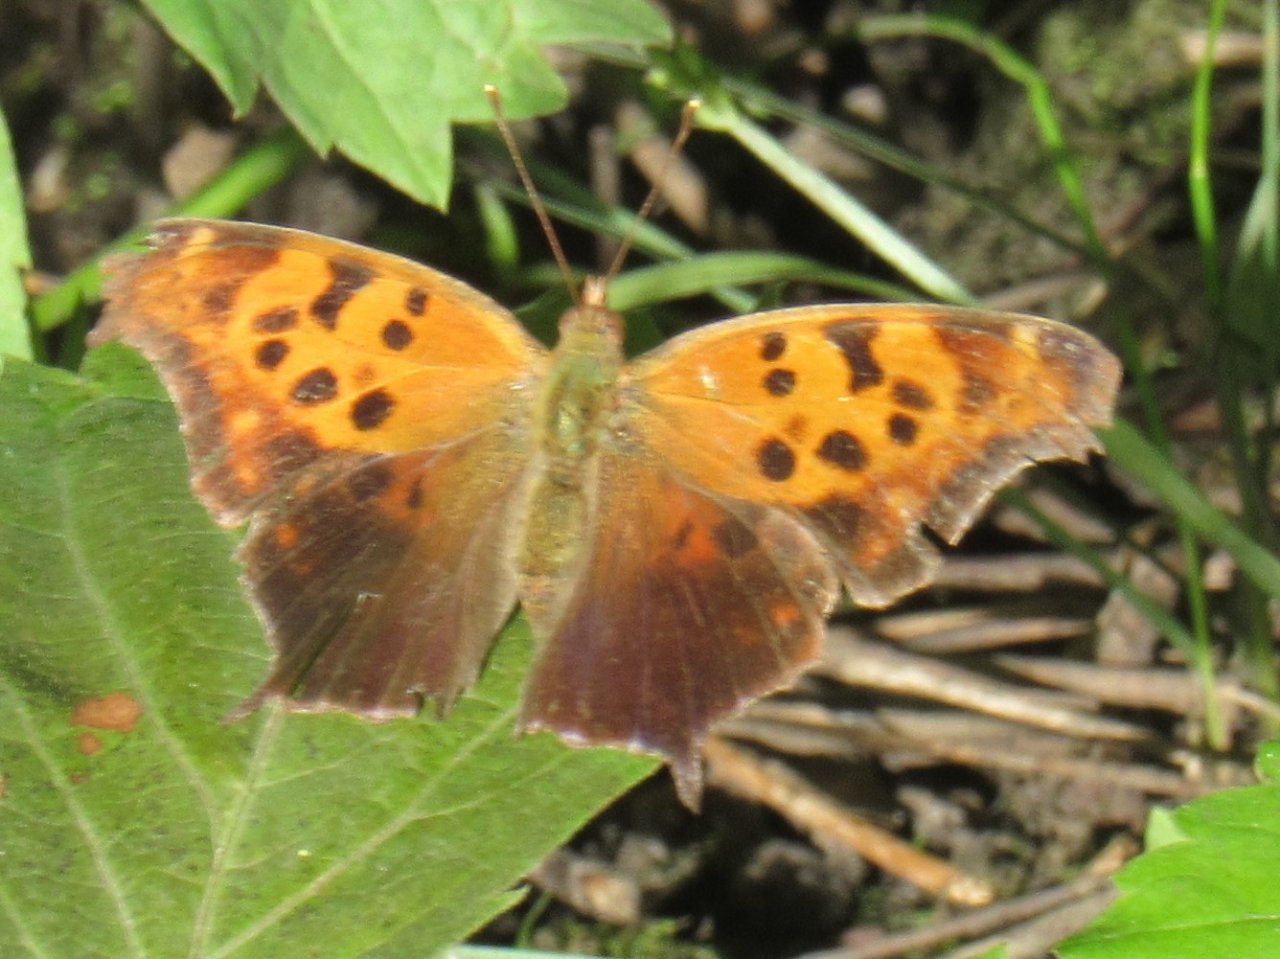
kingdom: Animalia
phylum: Arthropoda
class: Insecta
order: Lepidoptera
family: Nymphalidae
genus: Polygonia
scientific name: Polygonia interrogationis
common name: Question Mark
